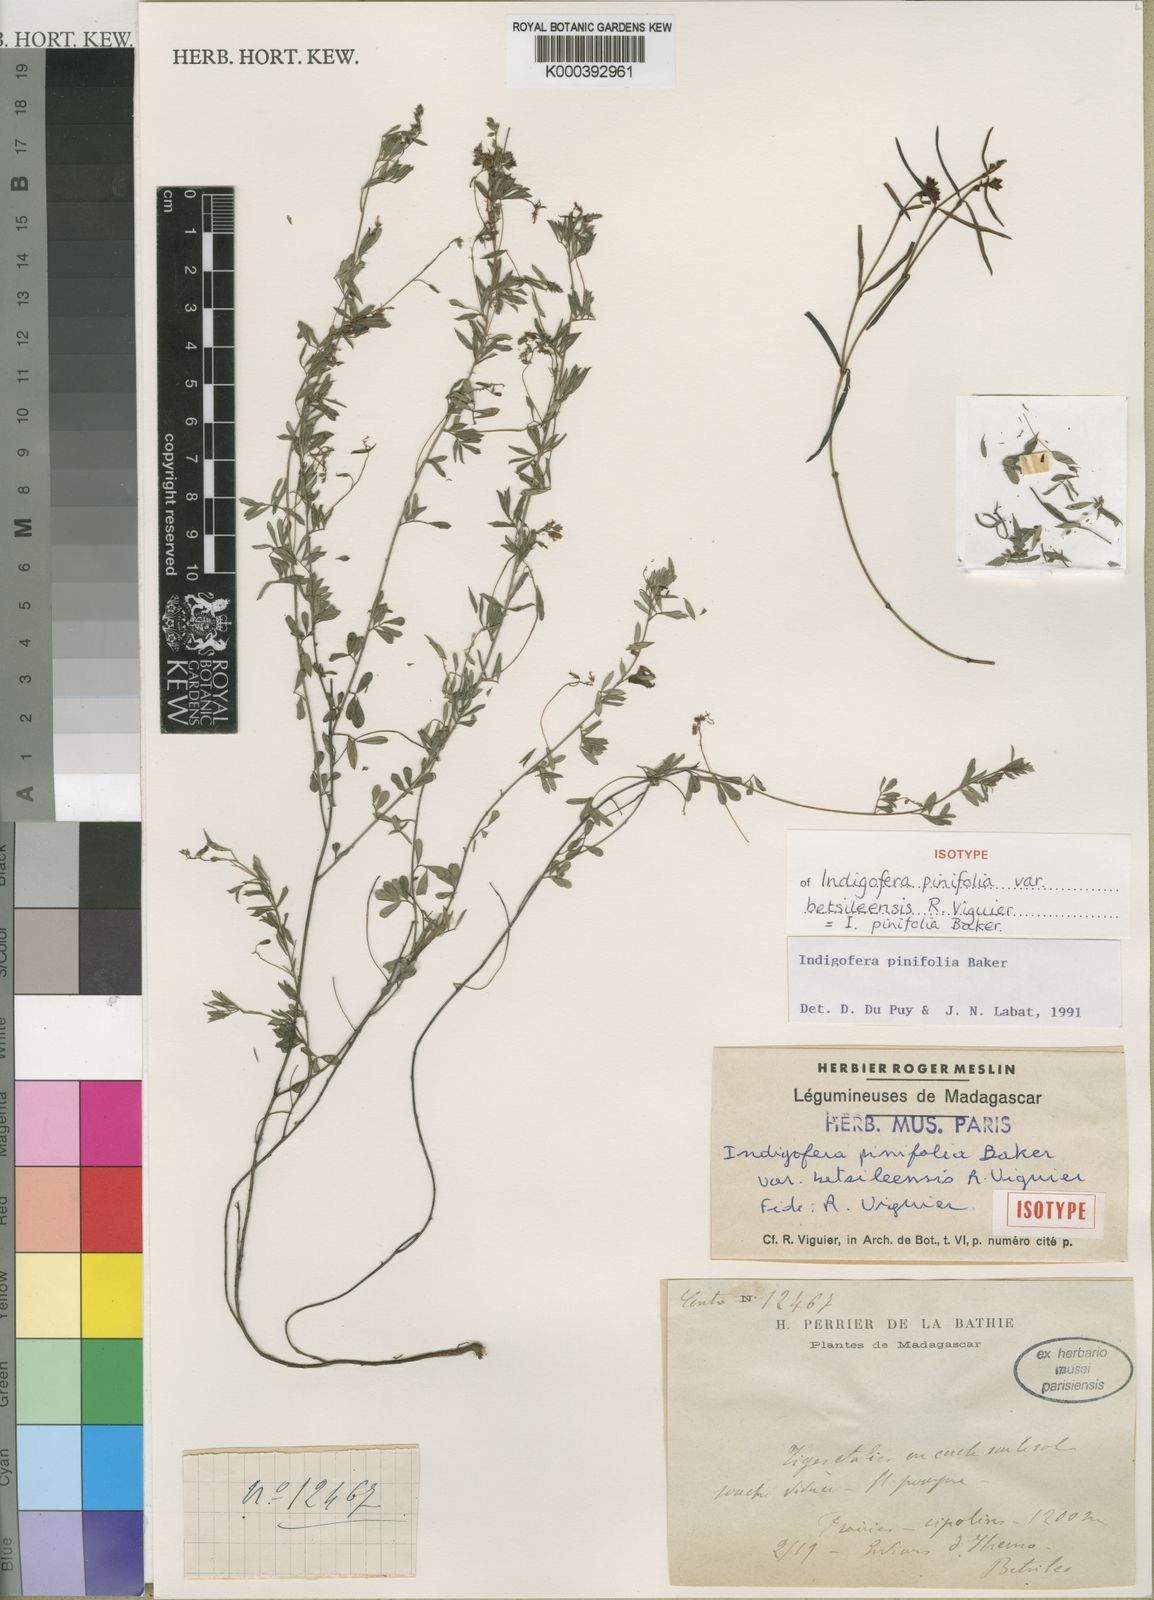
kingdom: Plantae
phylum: Tracheophyta
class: Magnoliopsida
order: Fabales
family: Fabaceae
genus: Indigofera
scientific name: Indigofera pinifolia
